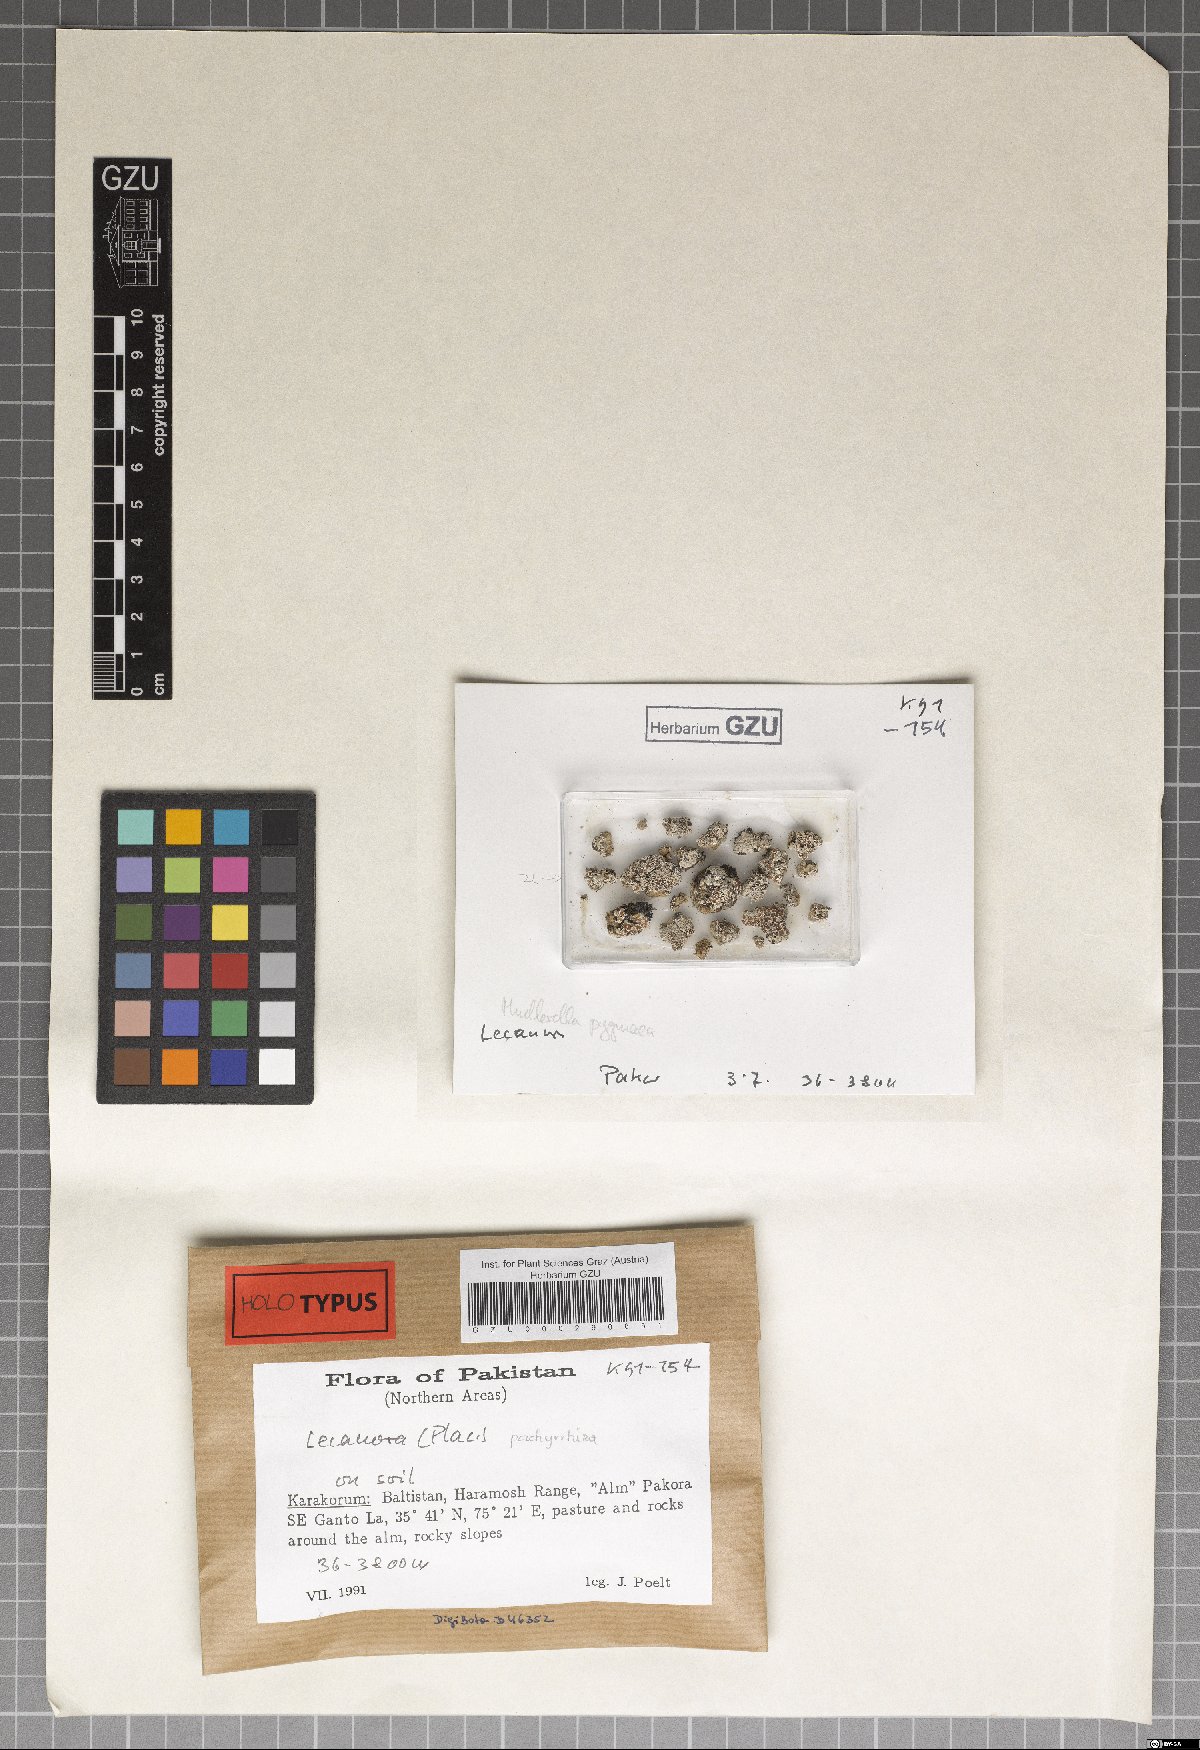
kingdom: Fungi
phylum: Ascomycota
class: Lecanoromycetes
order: Lecanorales
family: Lecanoraceae
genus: Lecanora
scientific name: Lecanora pachyrrhiza
